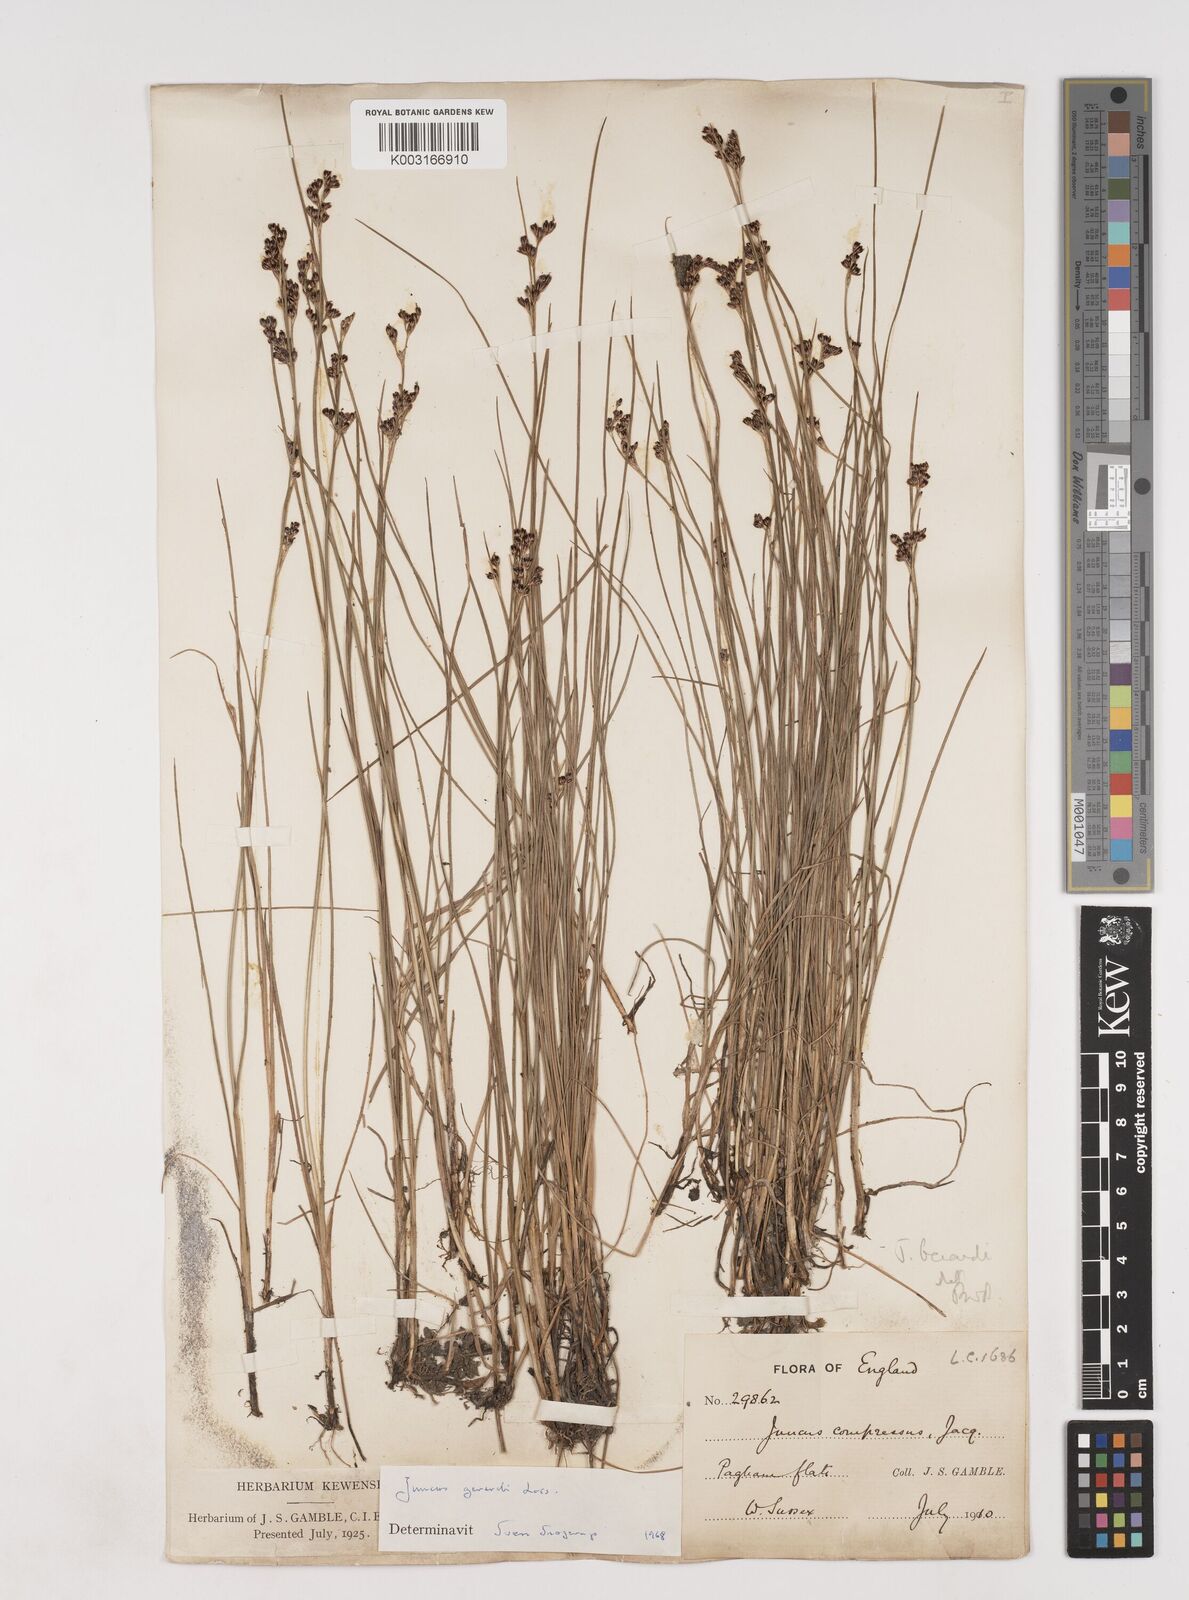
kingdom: Plantae
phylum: Tracheophyta
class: Liliopsida
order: Poales
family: Juncaceae
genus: Juncus
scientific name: Juncus gerardi
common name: Saltmarsh rush
